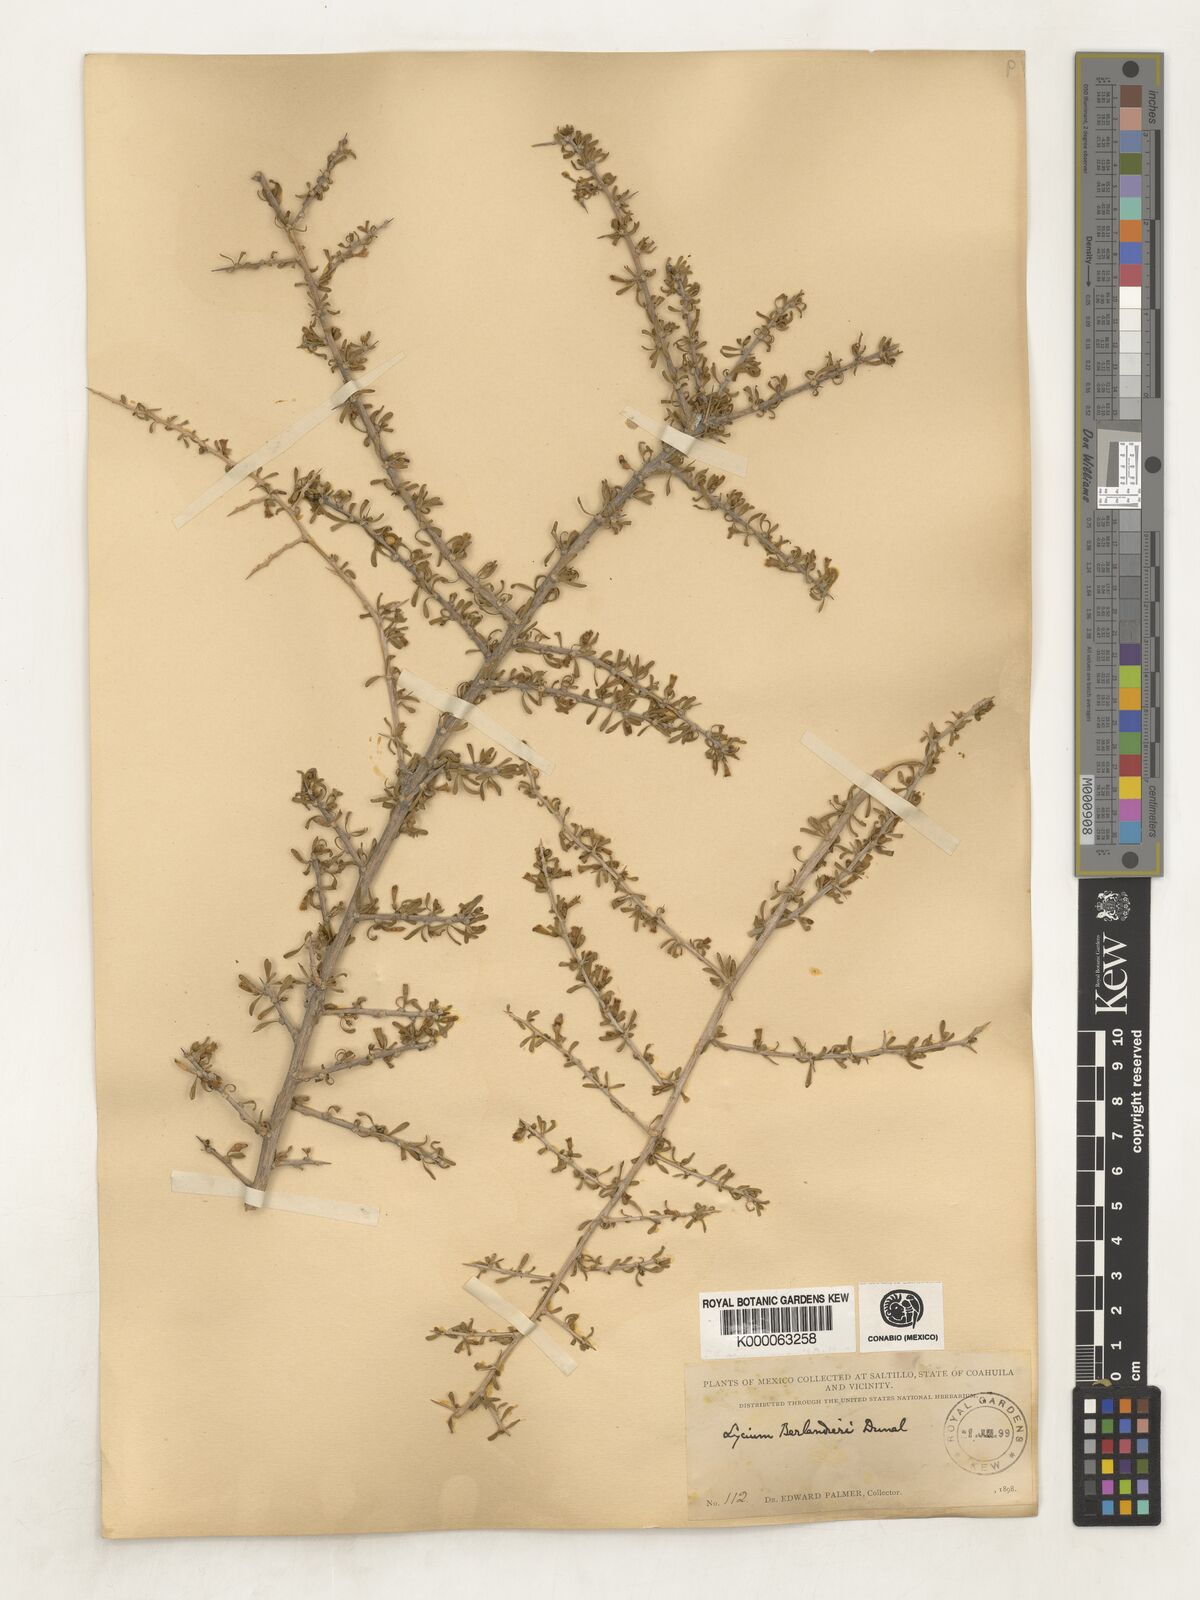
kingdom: Plantae
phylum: Tracheophyta
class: Magnoliopsida
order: Solanales
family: Solanaceae
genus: Lycium
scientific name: Lycium berlandieri
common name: Berlandier wolfberry
